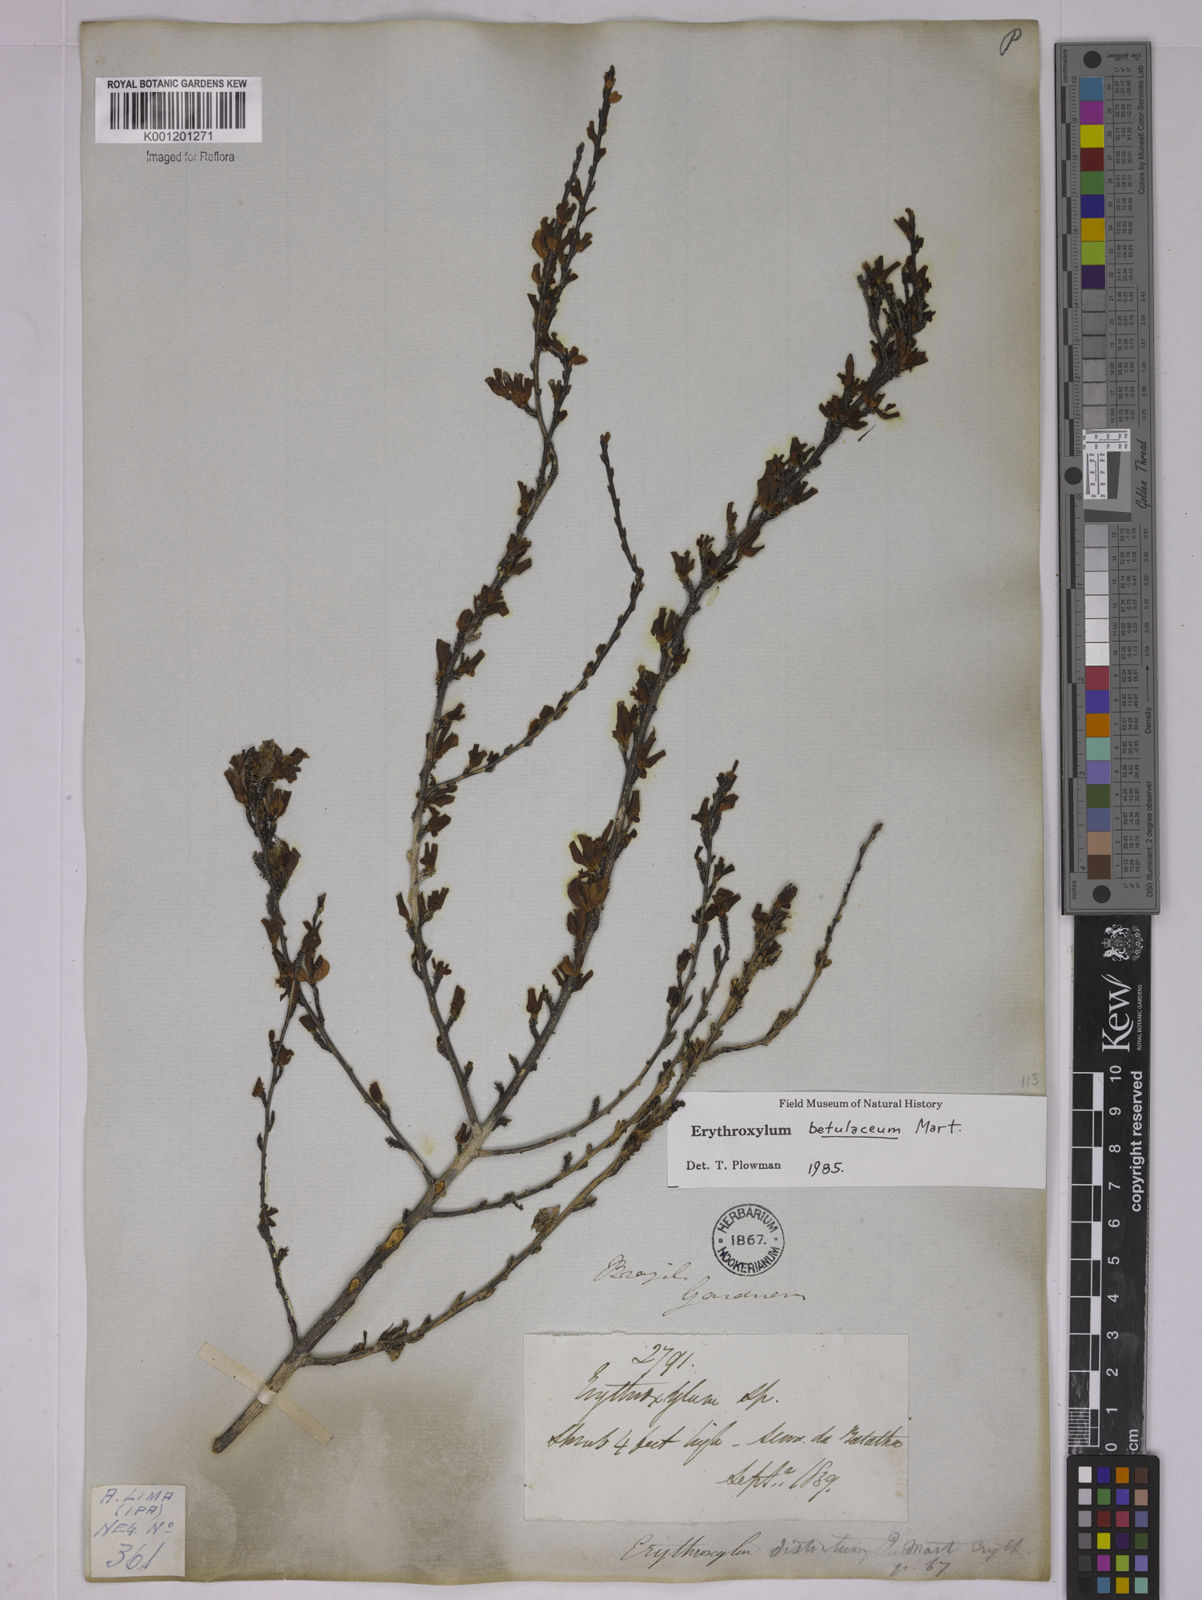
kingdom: Plantae
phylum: Tracheophyta
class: Magnoliopsida
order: Malpighiales
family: Erythroxylaceae
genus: Erythroxylum
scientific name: Erythroxylum betulaceum
